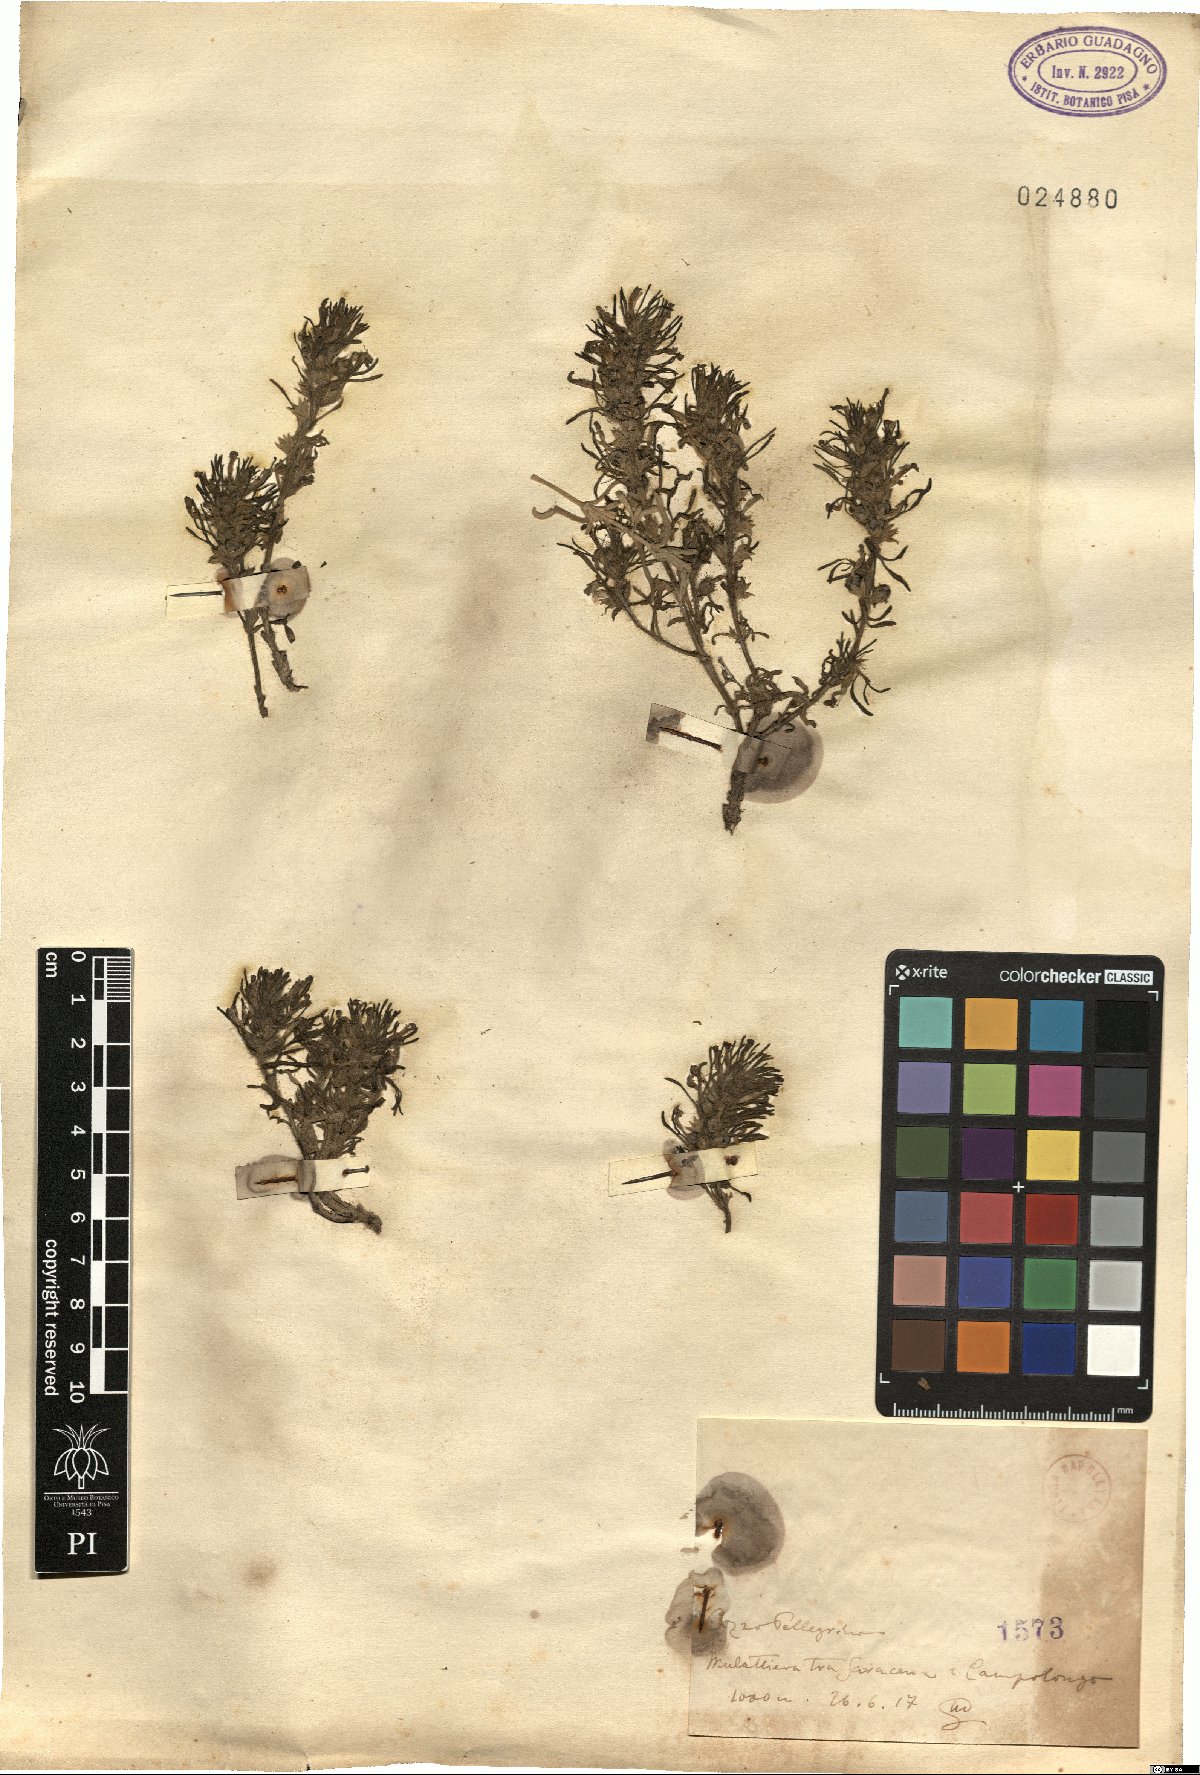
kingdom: Plantae
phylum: Tracheophyta
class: Magnoliopsida
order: Lamiales
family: Lamiaceae
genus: Ajuga
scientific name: Ajuga
